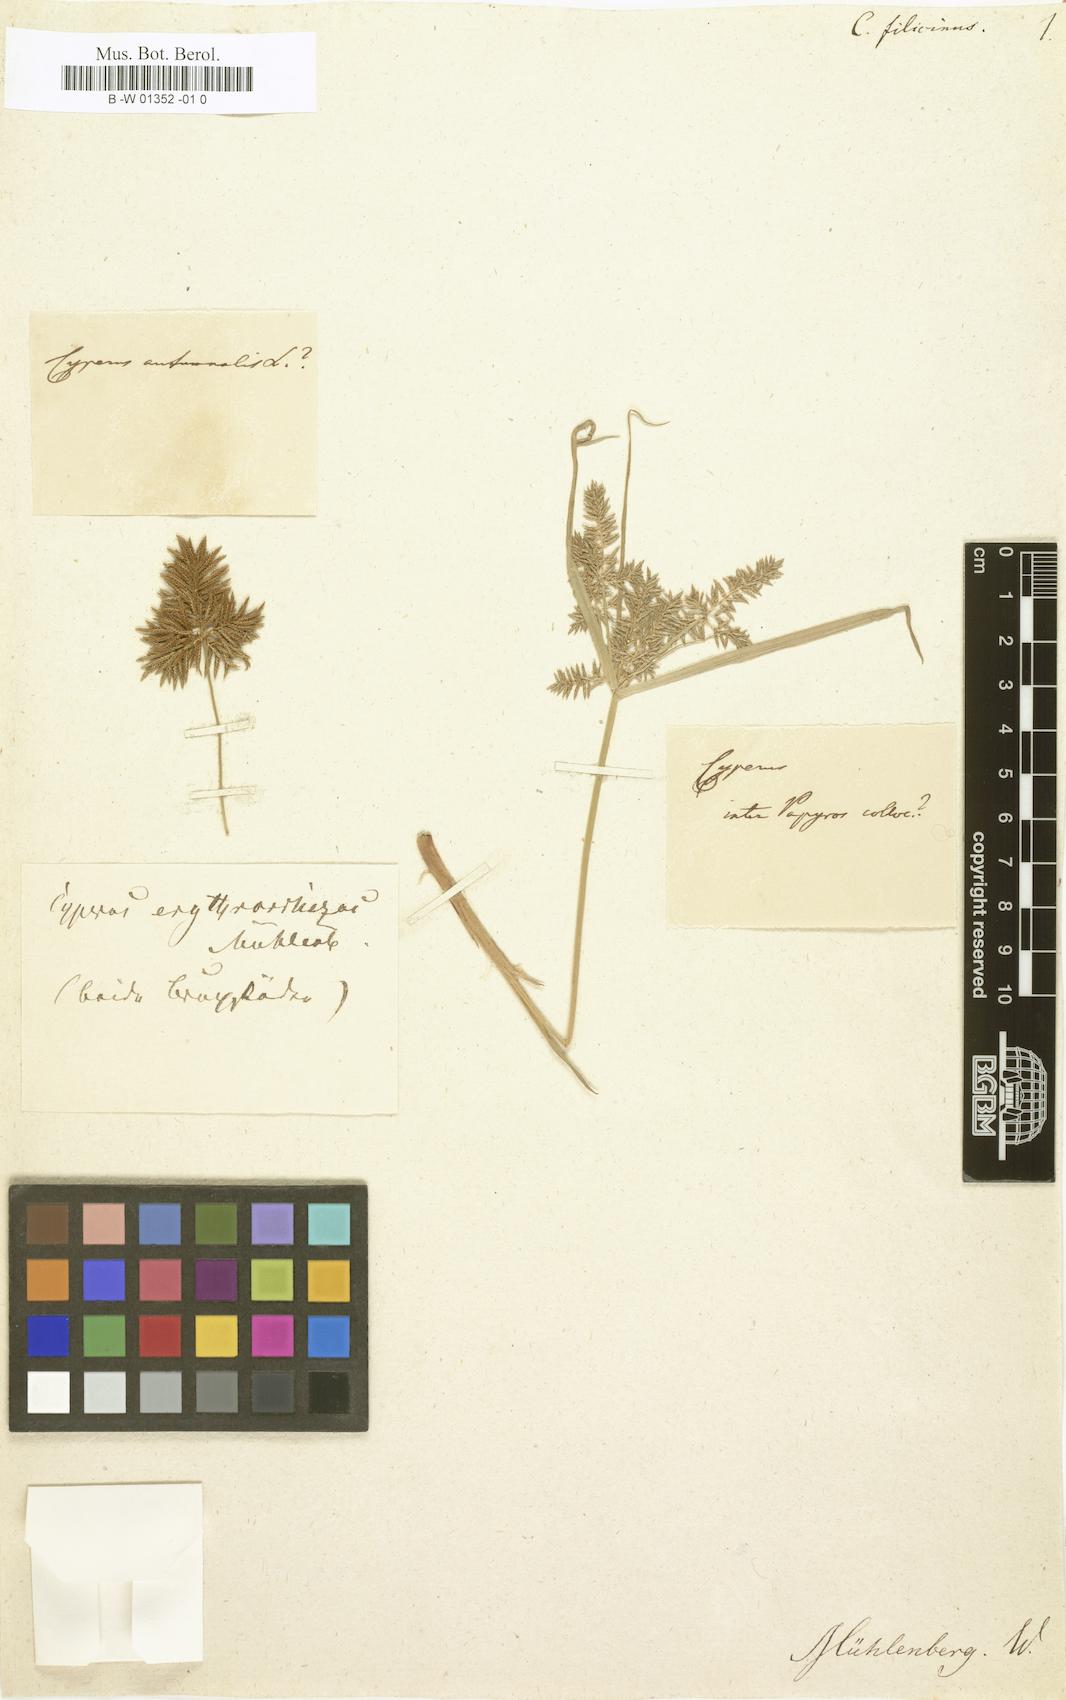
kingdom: Plantae
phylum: Tracheophyta
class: Liliopsida
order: Poales
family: Cyperaceae
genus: Cyperus
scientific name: Cyperus filicinus
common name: Fern flatsedge
